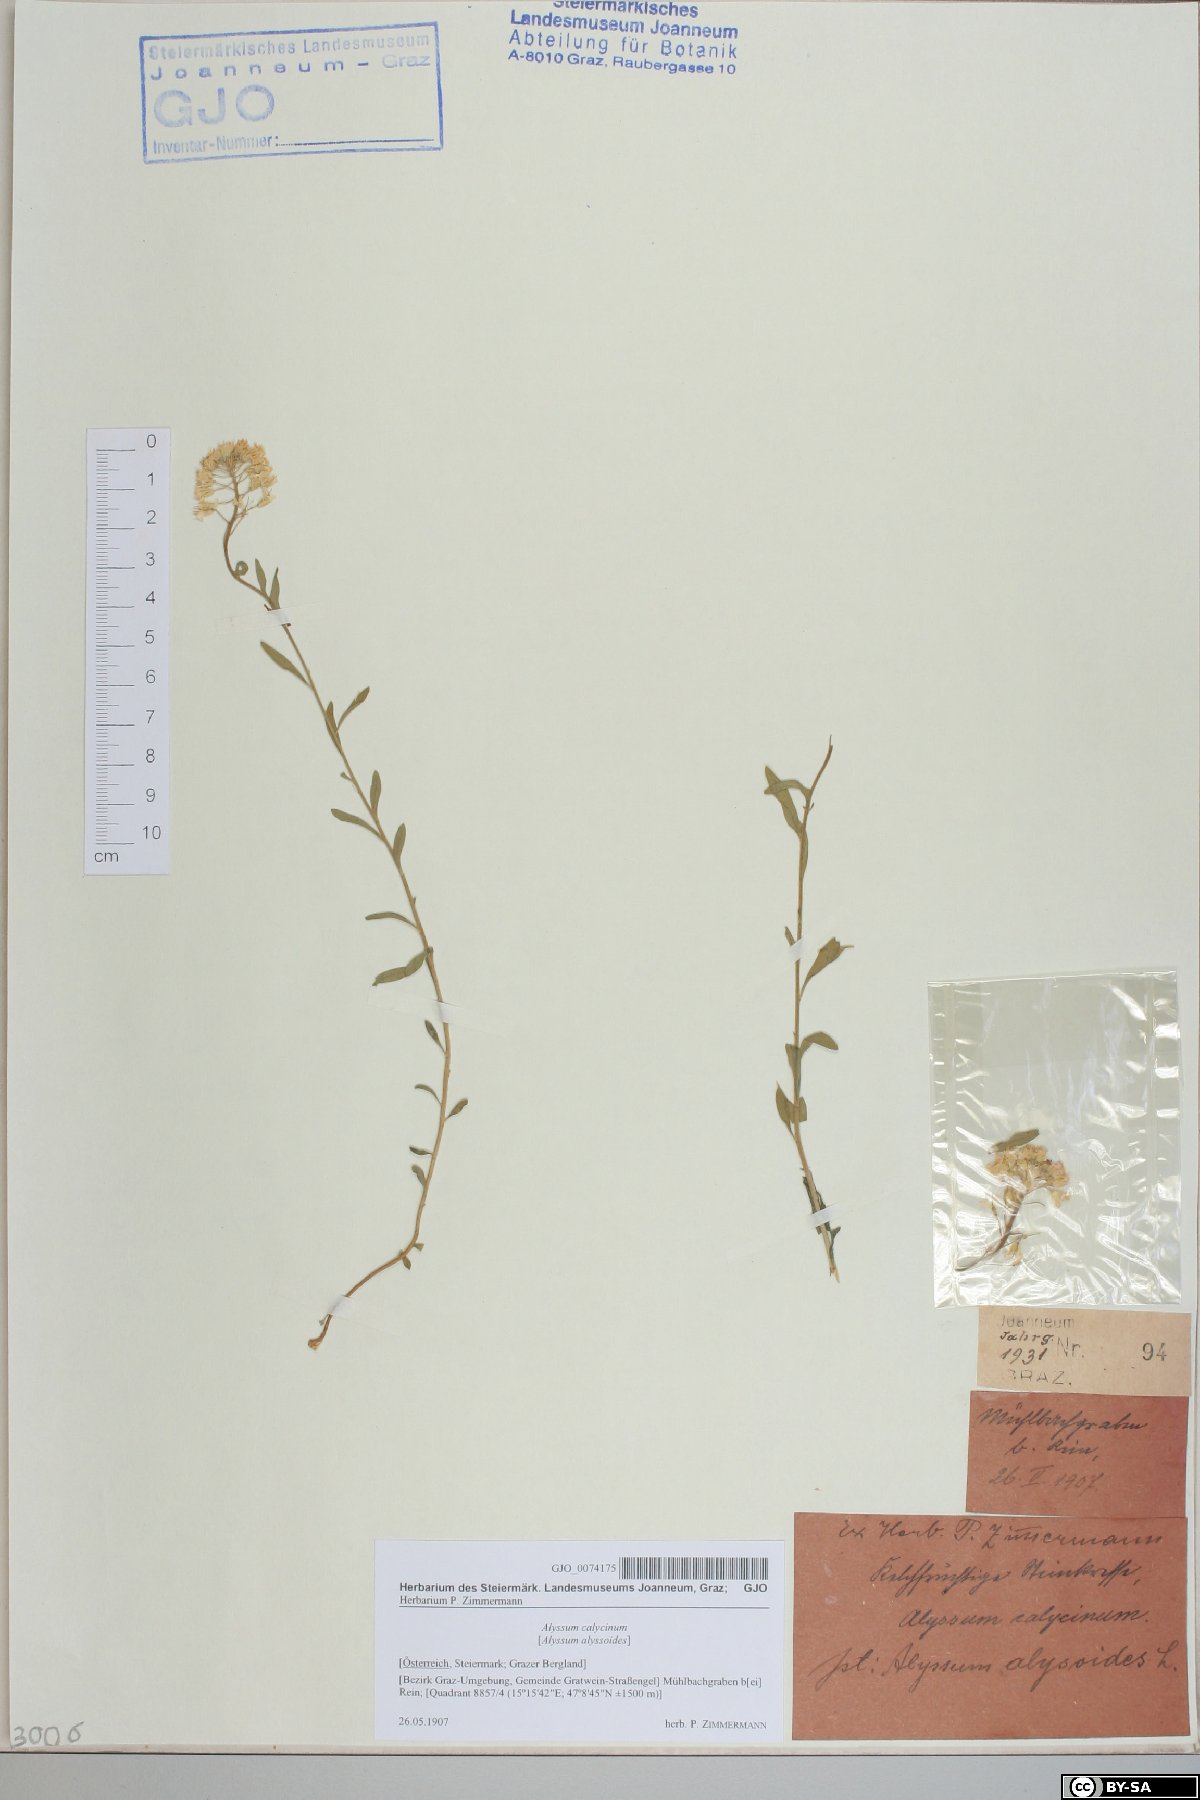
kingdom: Plantae
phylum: Tracheophyta
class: Magnoliopsida
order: Brassicales
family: Brassicaceae
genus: Alyssum
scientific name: Alyssum alyssoides
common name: Small alison
